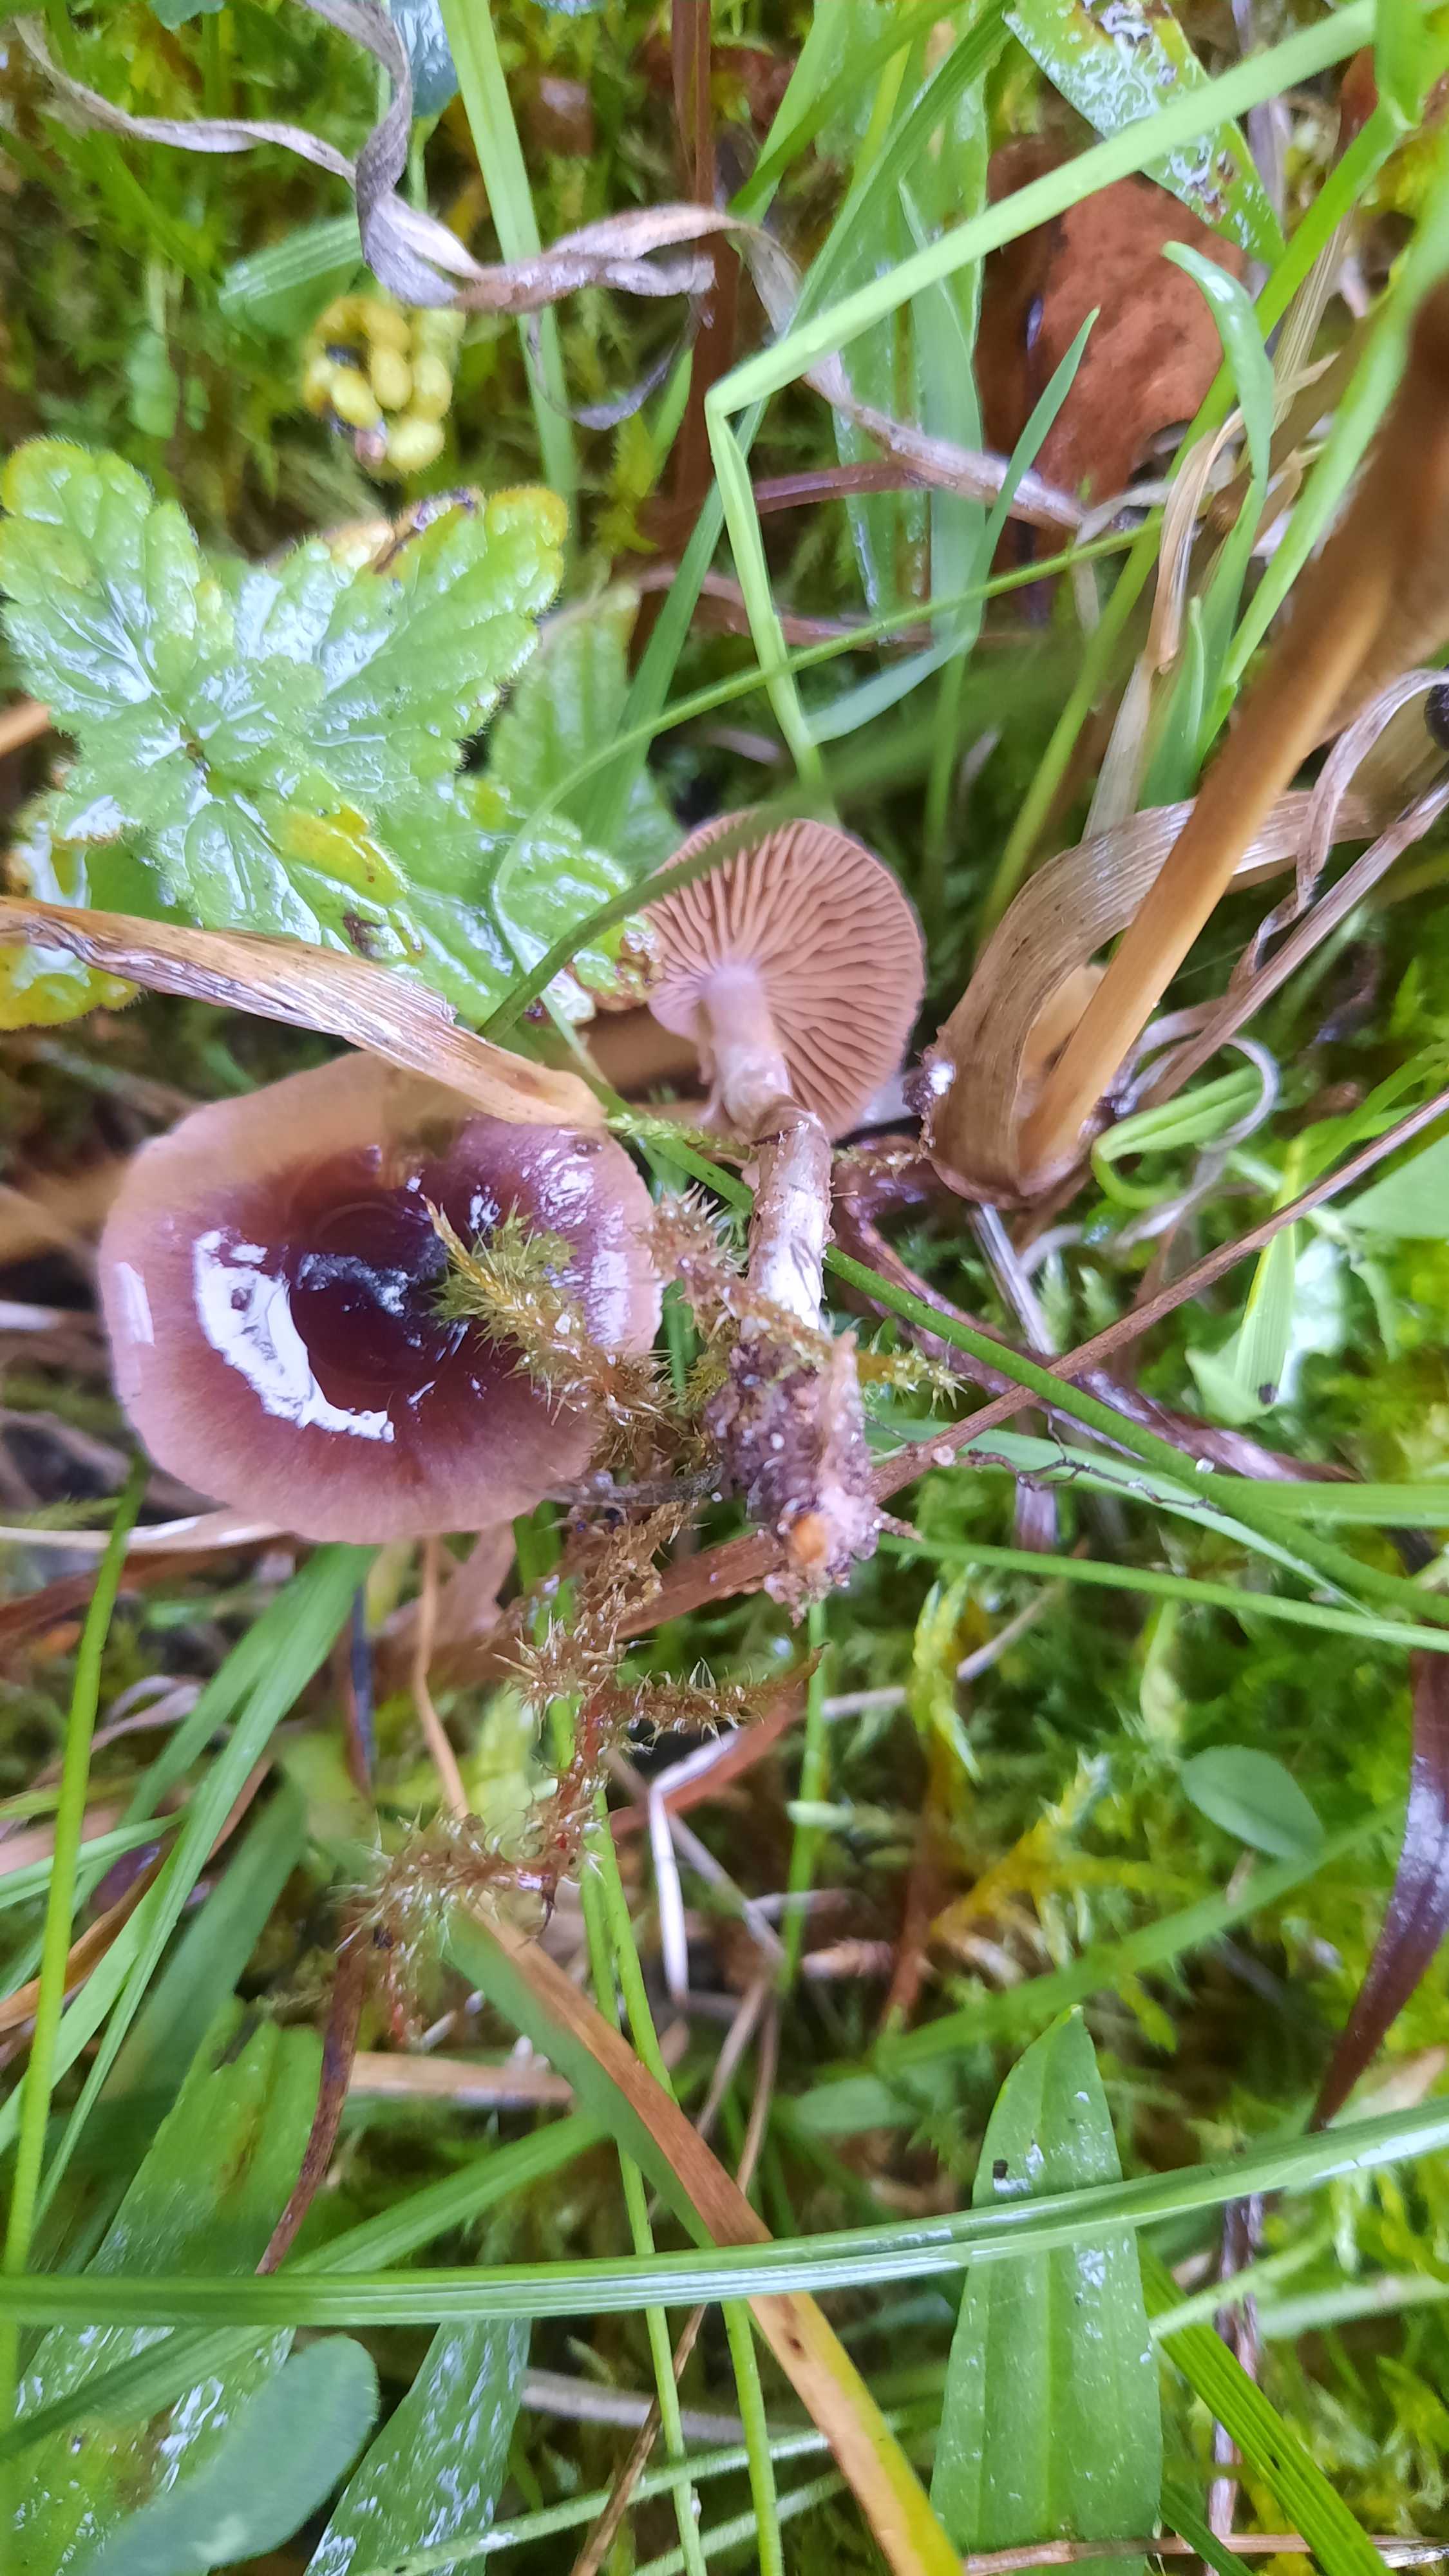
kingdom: Fungi
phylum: Basidiomycota
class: Agaricomycetes
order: Agaricales
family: Cortinariaceae
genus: Cortinarius
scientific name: Cortinarius
